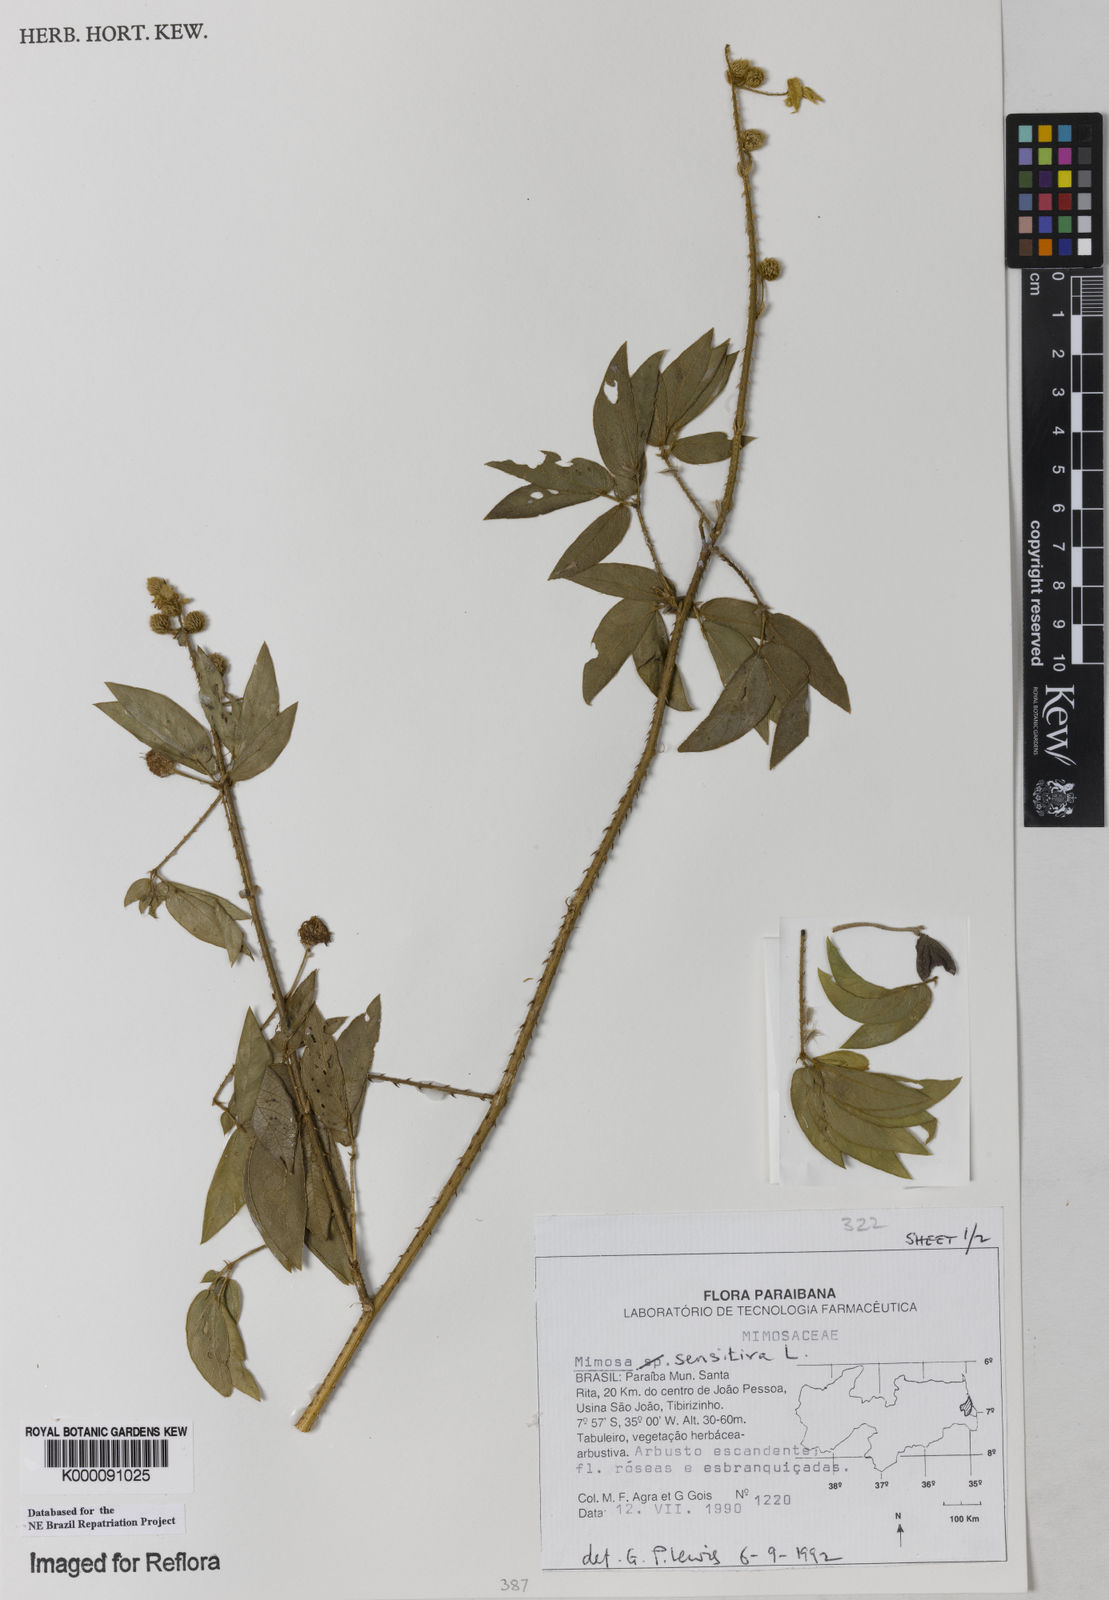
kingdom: Plantae
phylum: Tracheophyta
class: Magnoliopsida
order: Fabales
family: Fabaceae
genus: Mimosa
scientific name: Mimosa sensitiva
